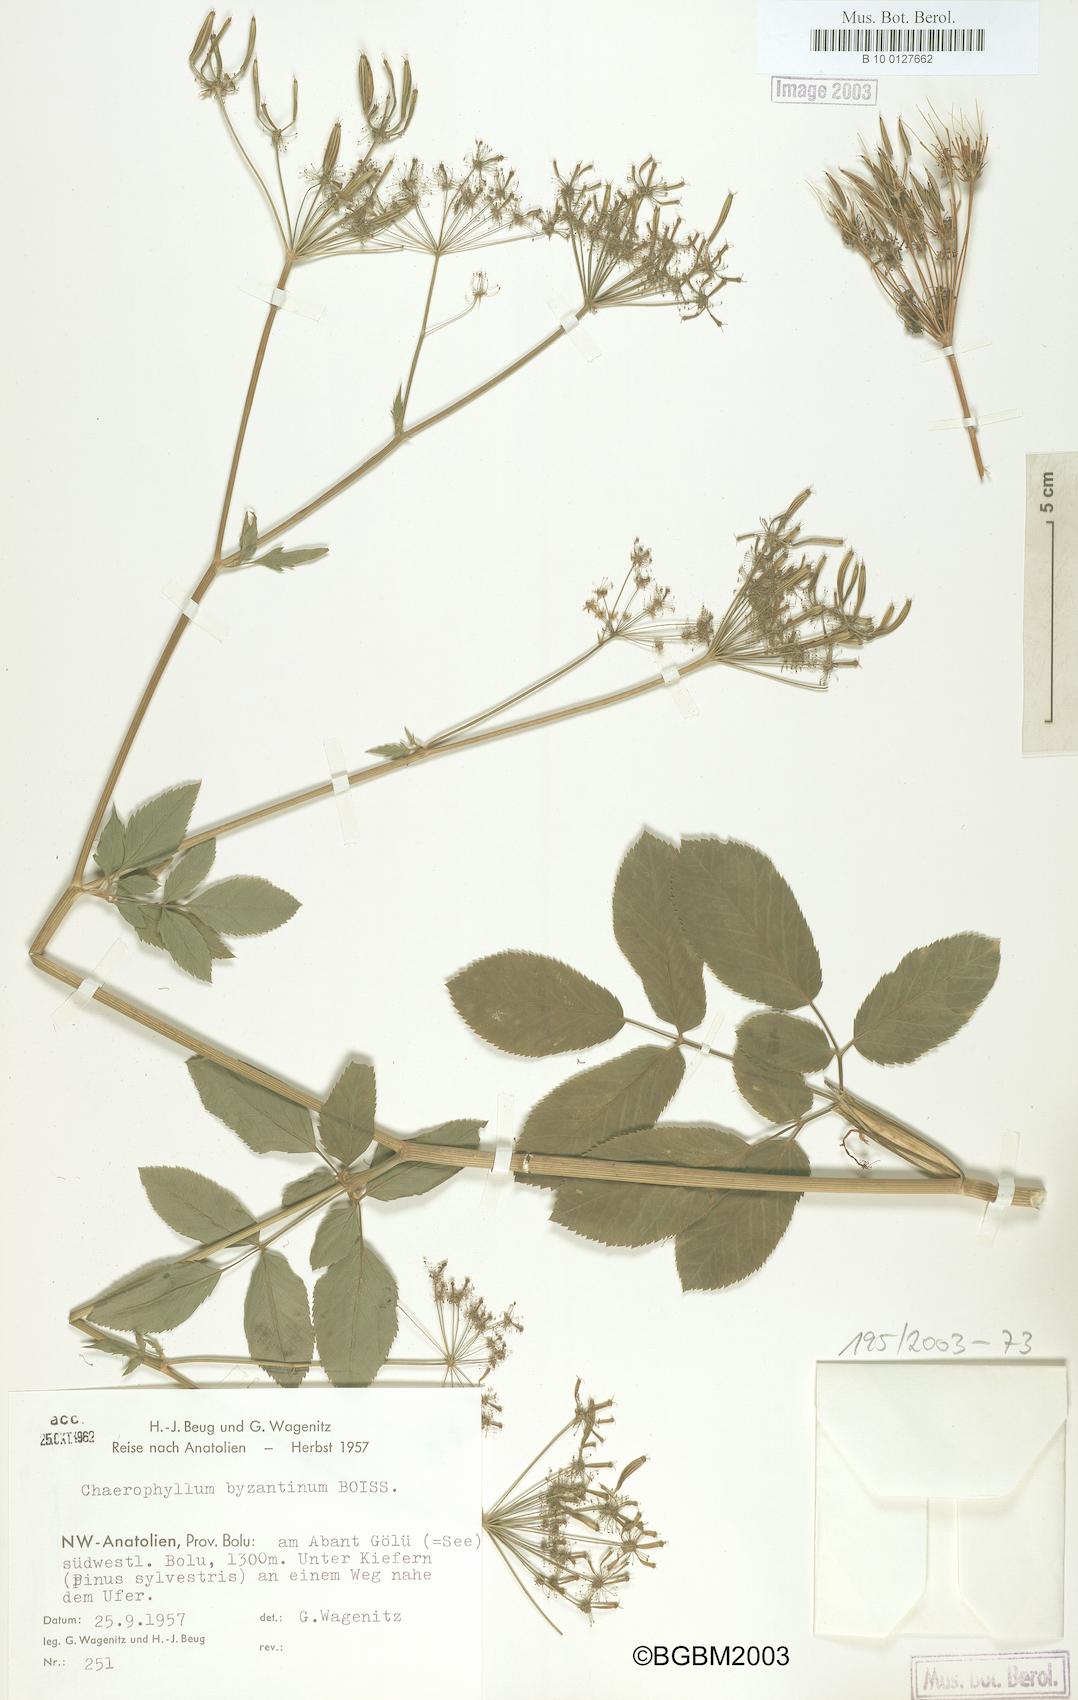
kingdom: Plantae
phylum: Tracheophyta
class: Magnoliopsida
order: Apiales
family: Apiaceae
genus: Chaerophyllum
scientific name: Chaerophyllum byzantinum
